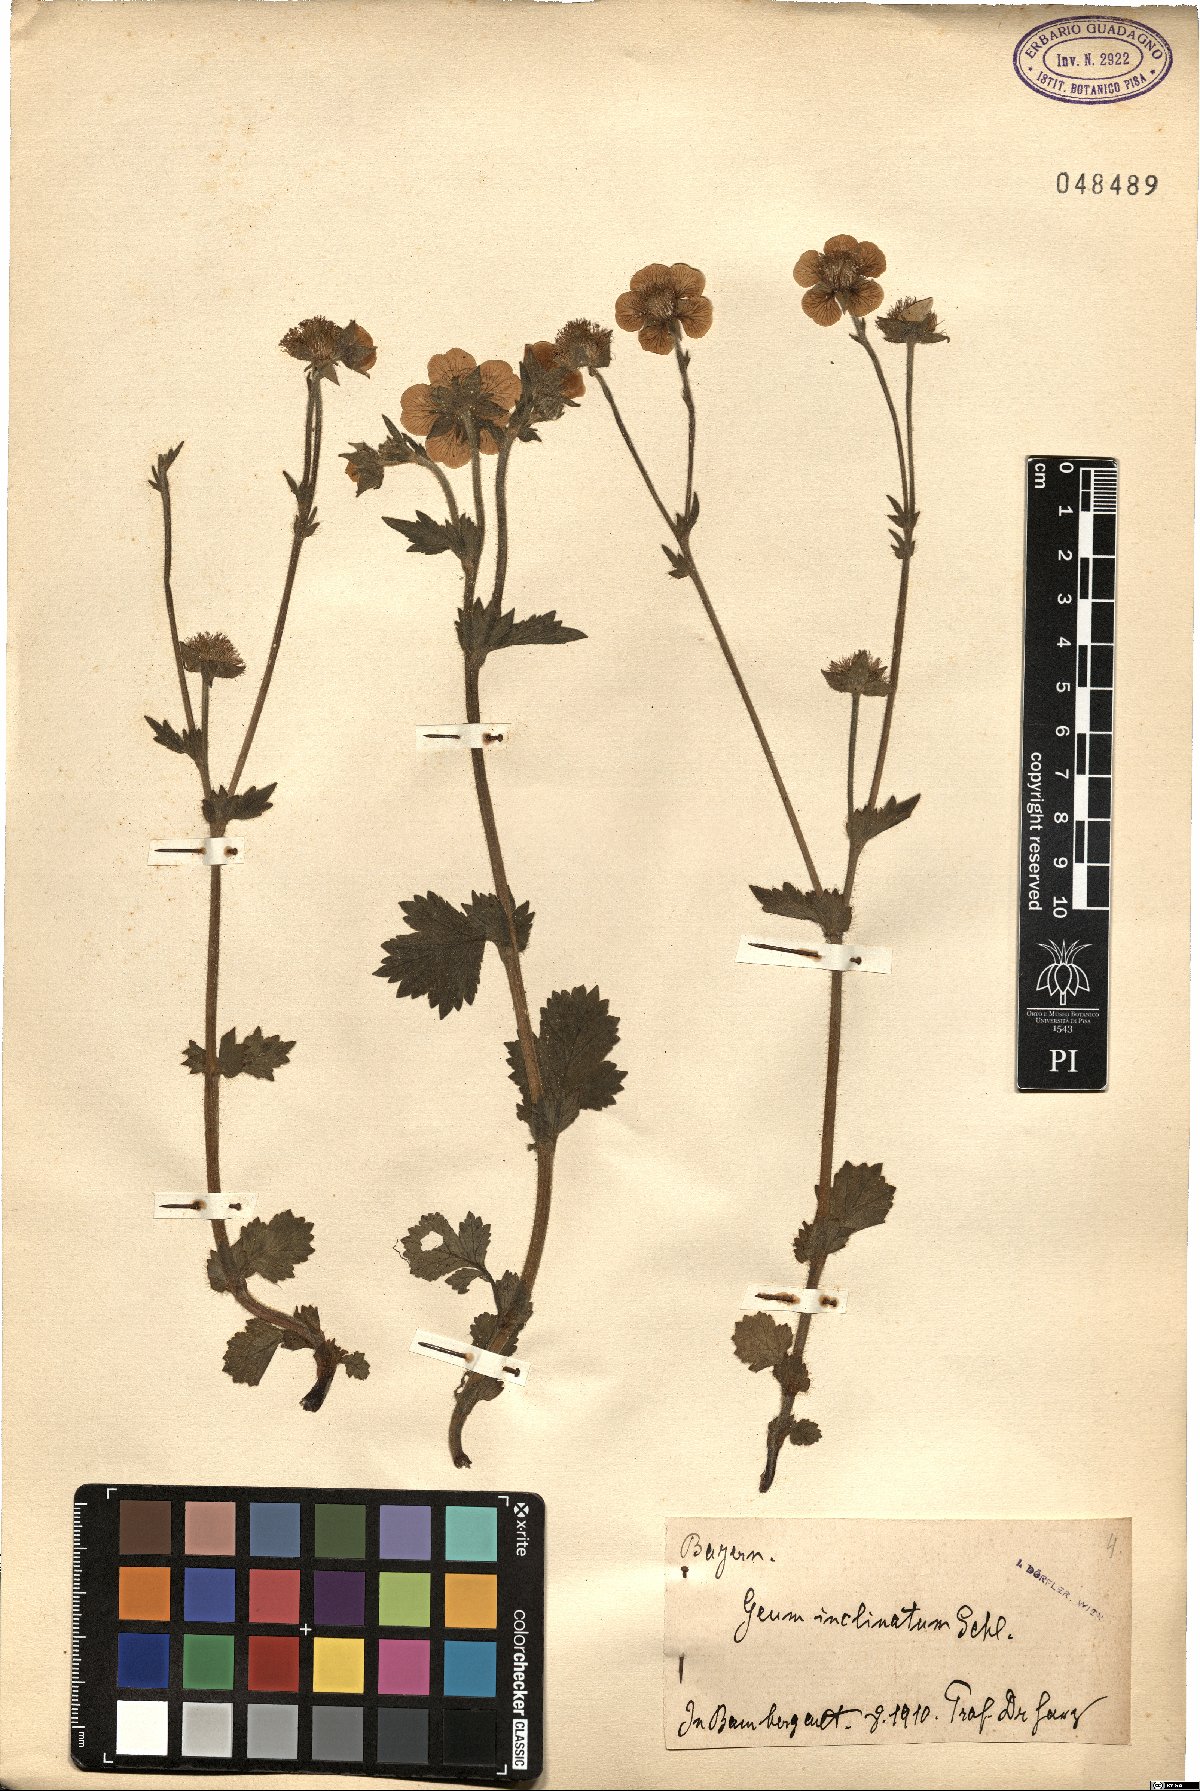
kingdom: Plantae
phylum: Tracheophyta
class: Magnoliopsida
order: Rosales
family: Rosaceae
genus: Geum
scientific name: Geum inclinatum
